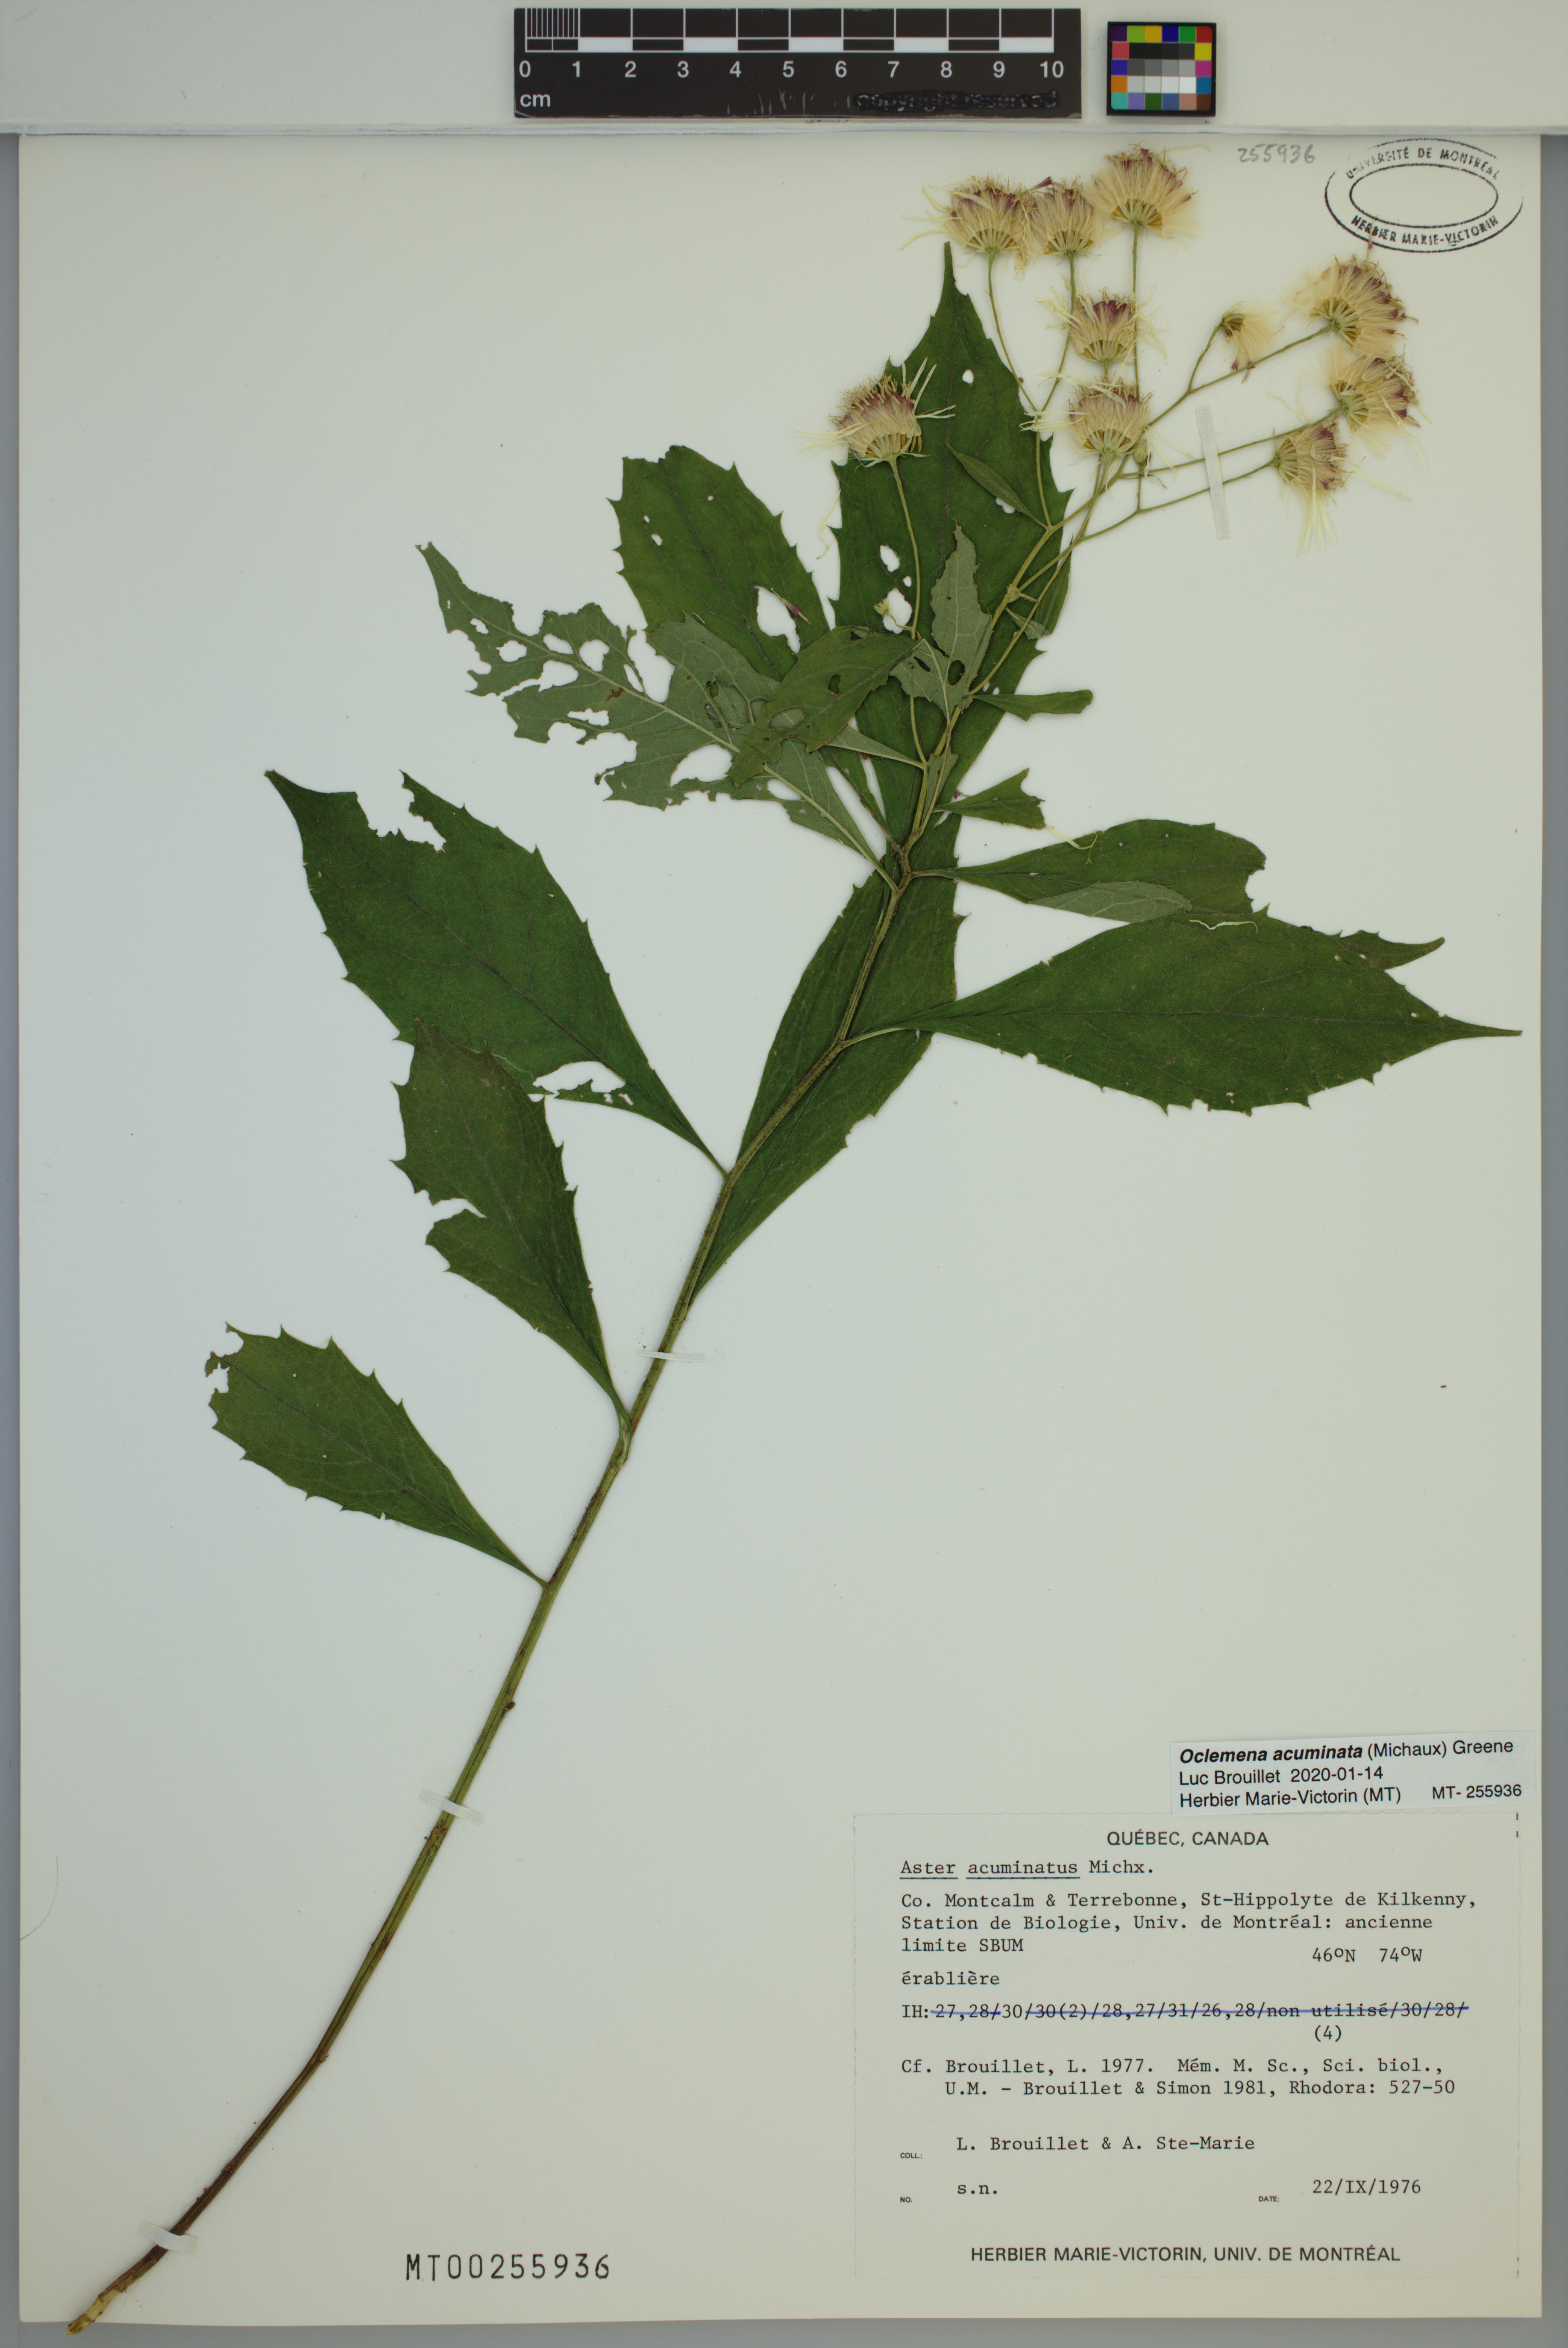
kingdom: Plantae
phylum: Tracheophyta
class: Magnoliopsida
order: Asterales
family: Asteraceae
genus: Oclemena
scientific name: Oclemena acuminata
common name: Mountain aster
